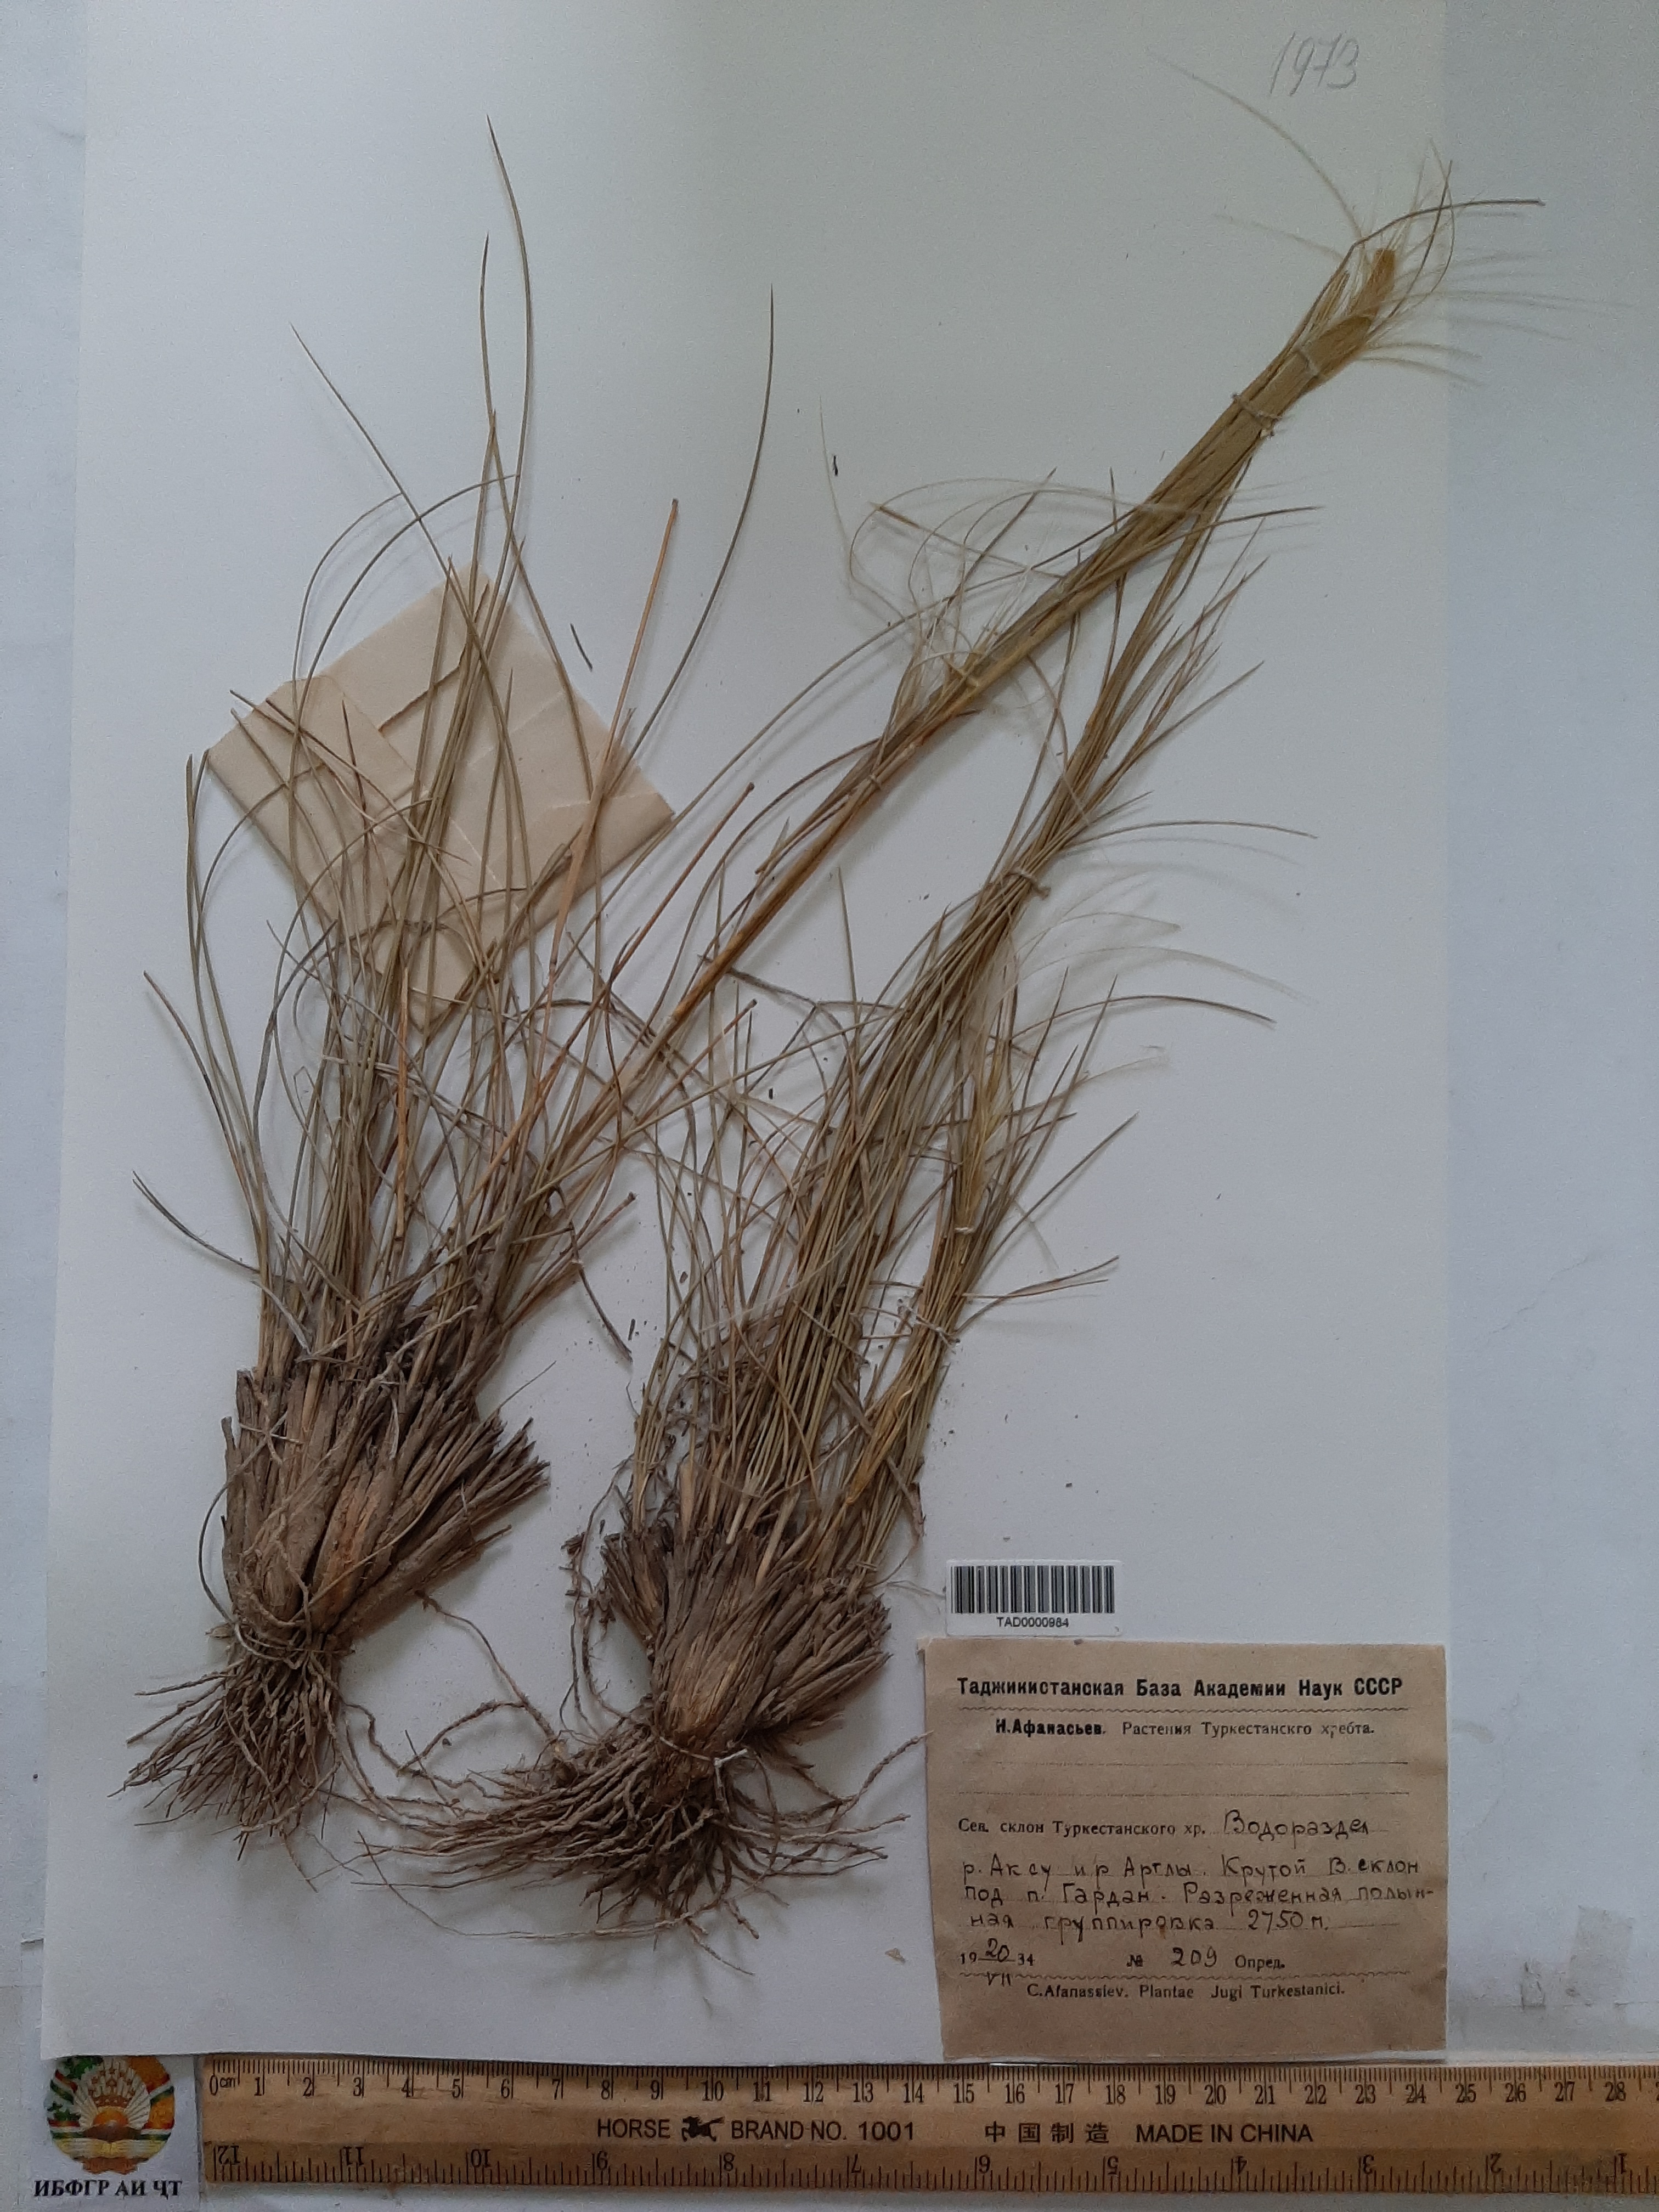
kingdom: Plantae
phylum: Tracheophyta
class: Liliopsida
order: Poales
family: Poaceae
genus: Stipa
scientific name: Stipa caucasica
